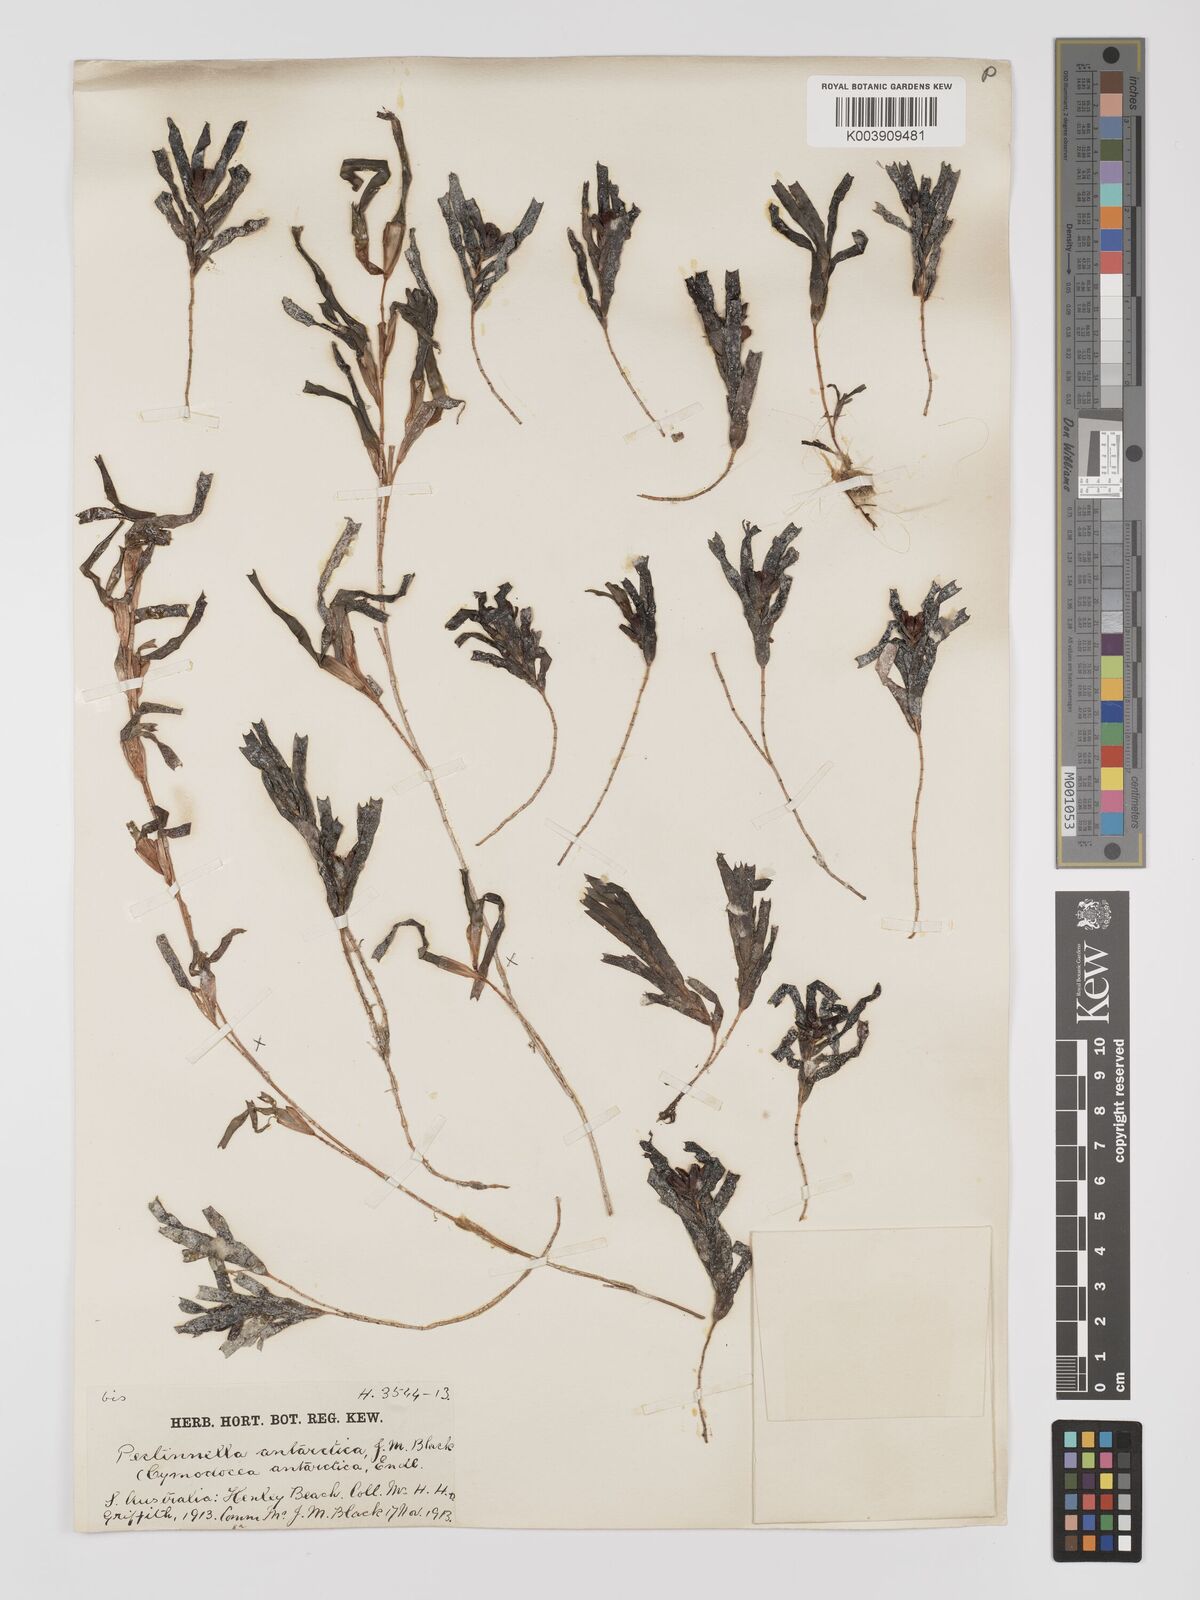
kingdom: Plantae
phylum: Tracheophyta
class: Liliopsida
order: Alismatales
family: Cymodoceaceae
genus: Amphibolis
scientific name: Amphibolis antarctica
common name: Species code: aa
